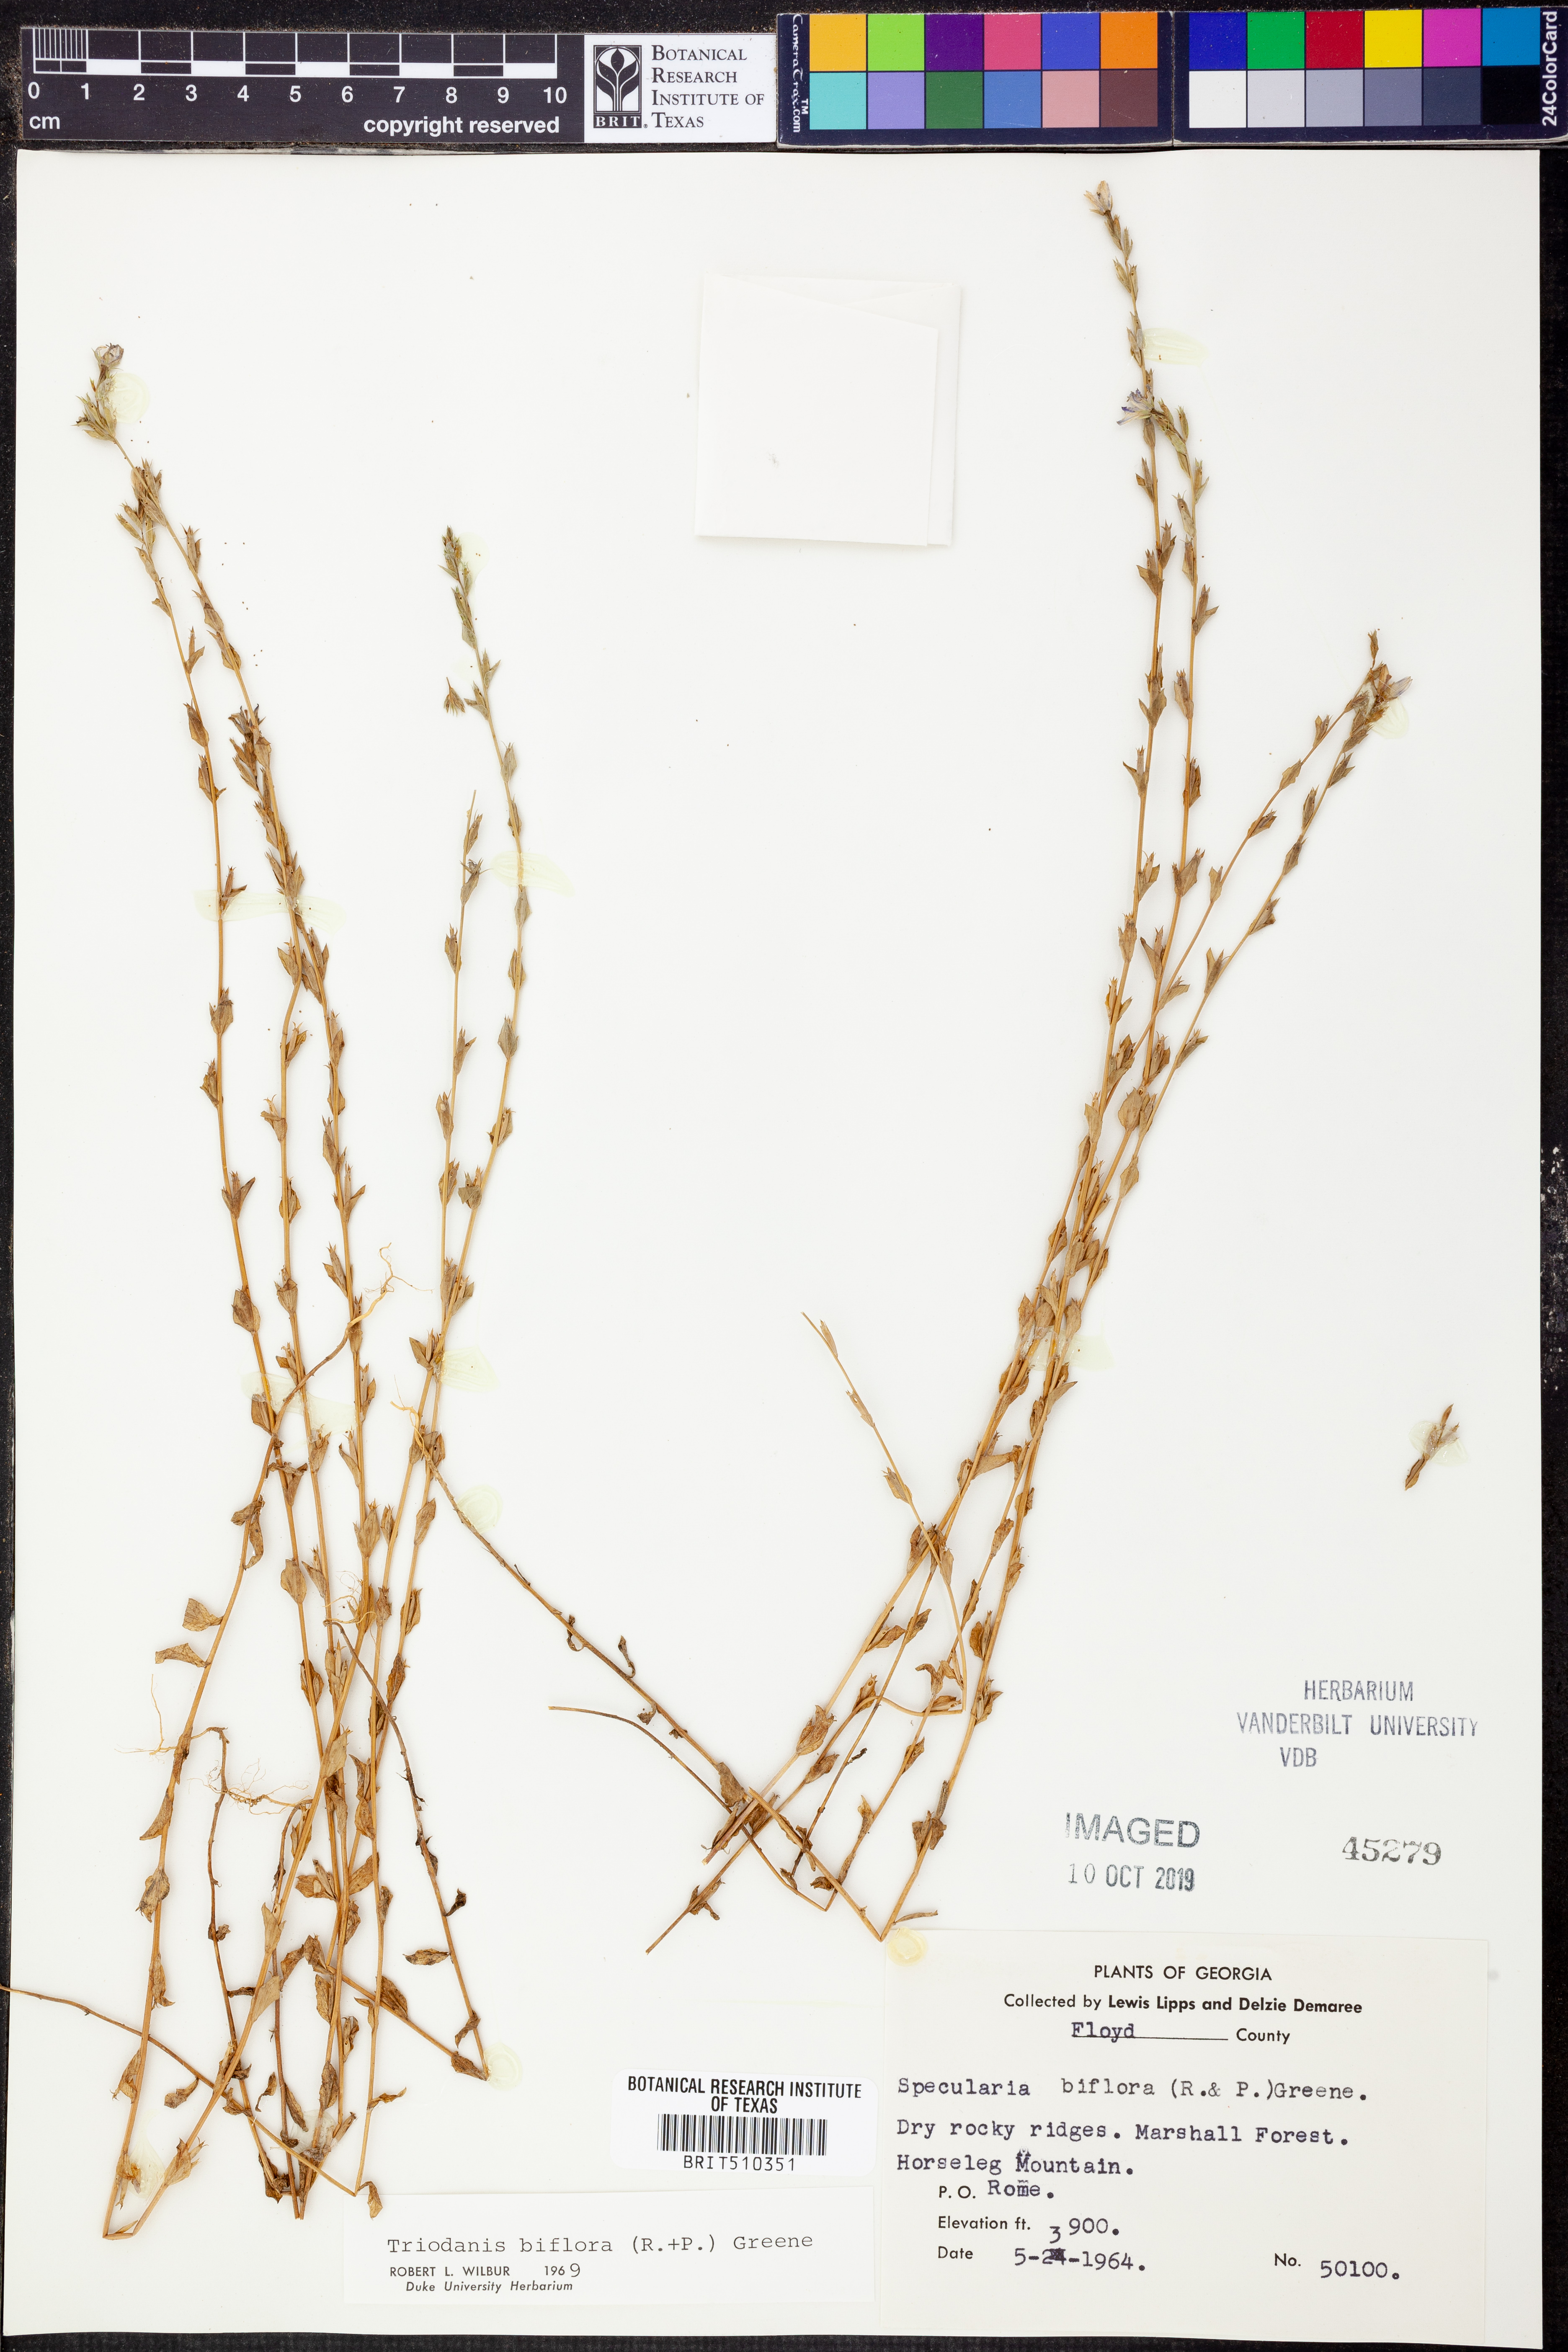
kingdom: Plantae
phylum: Tracheophyta
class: Magnoliopsida
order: Asterales
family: Campanulaceae
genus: Triodanis
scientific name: Triodanis perfoliata
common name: Clasping venus' looking-glass
